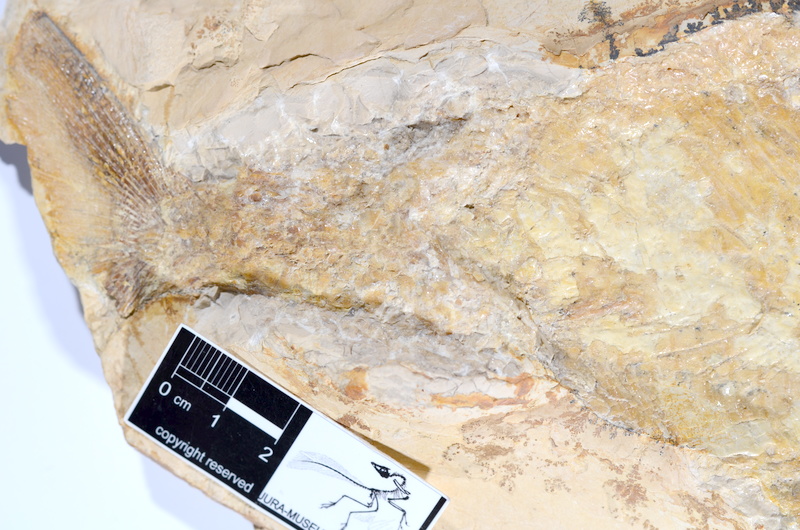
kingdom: Animalia
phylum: Chordata
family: Ankylophoridae
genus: Siemensichthys
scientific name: Siemensichthys macrocephalus
